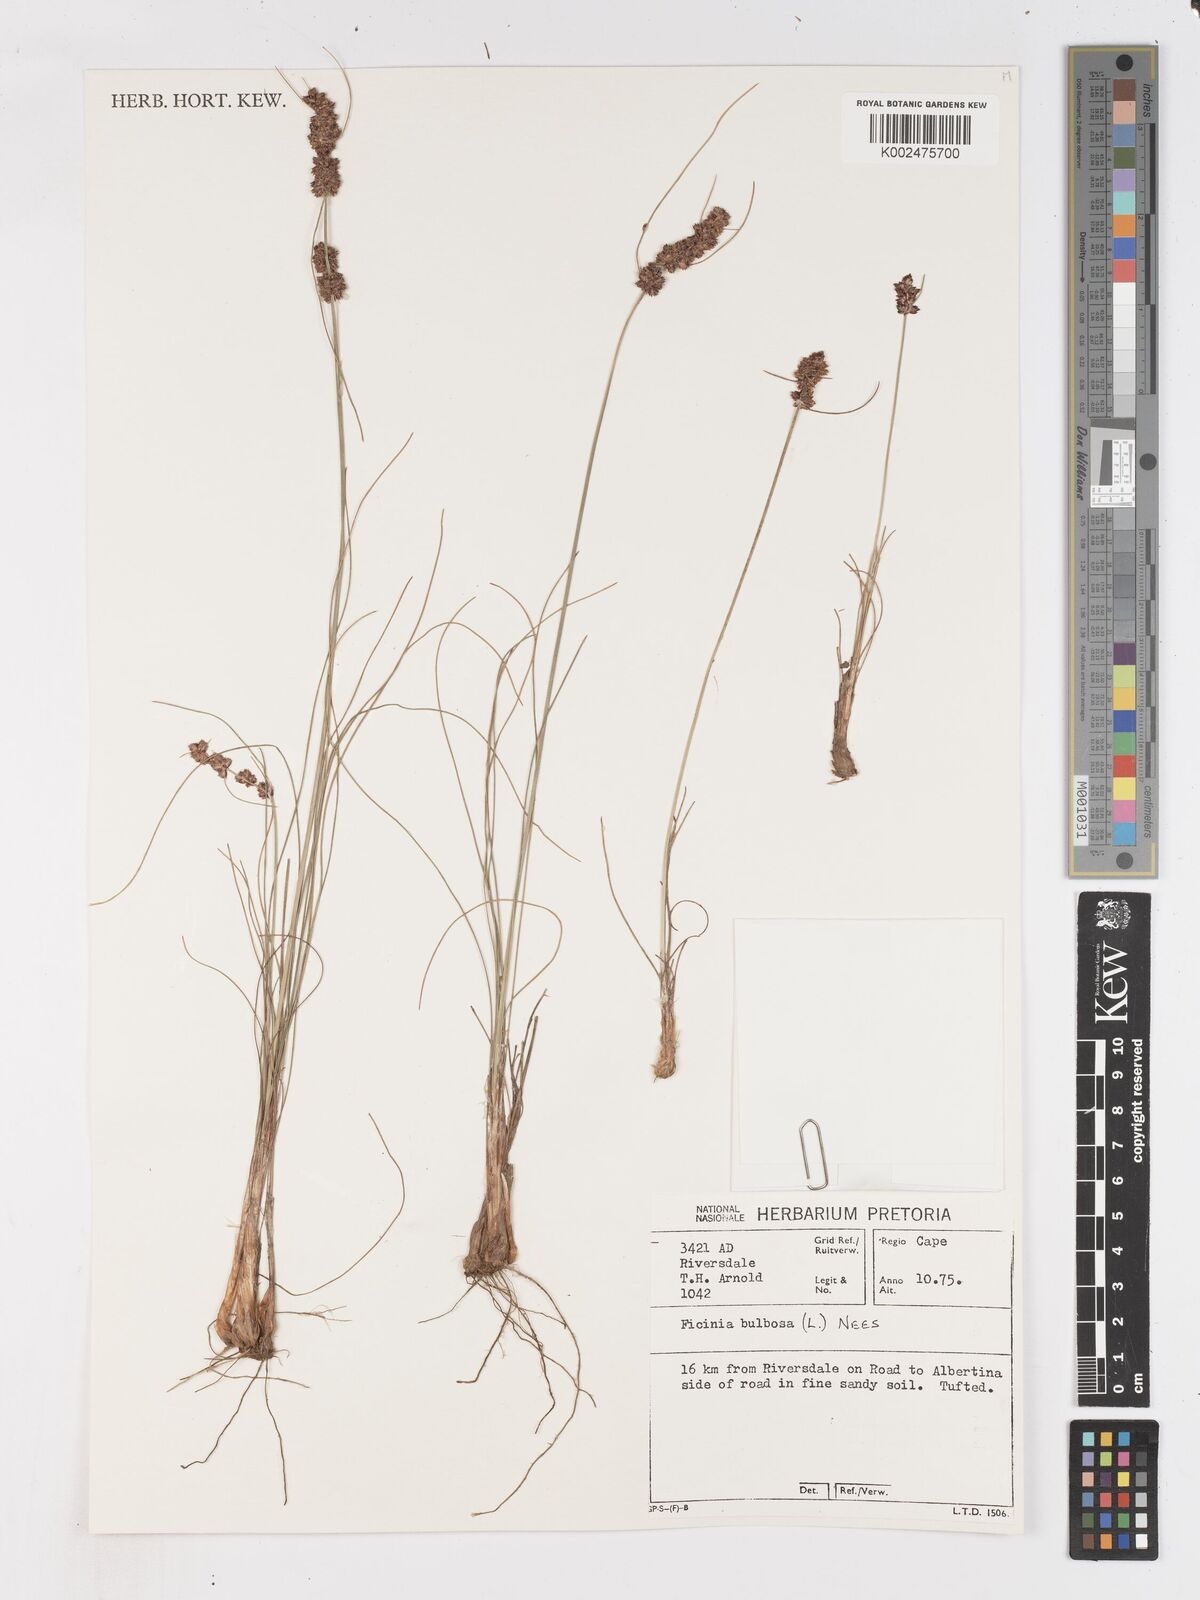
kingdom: Plantae
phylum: Tracheophyta
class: Liliopsida
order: Poales
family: Cyperaceae
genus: Ficinia
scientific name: Ficinia bulbosa
